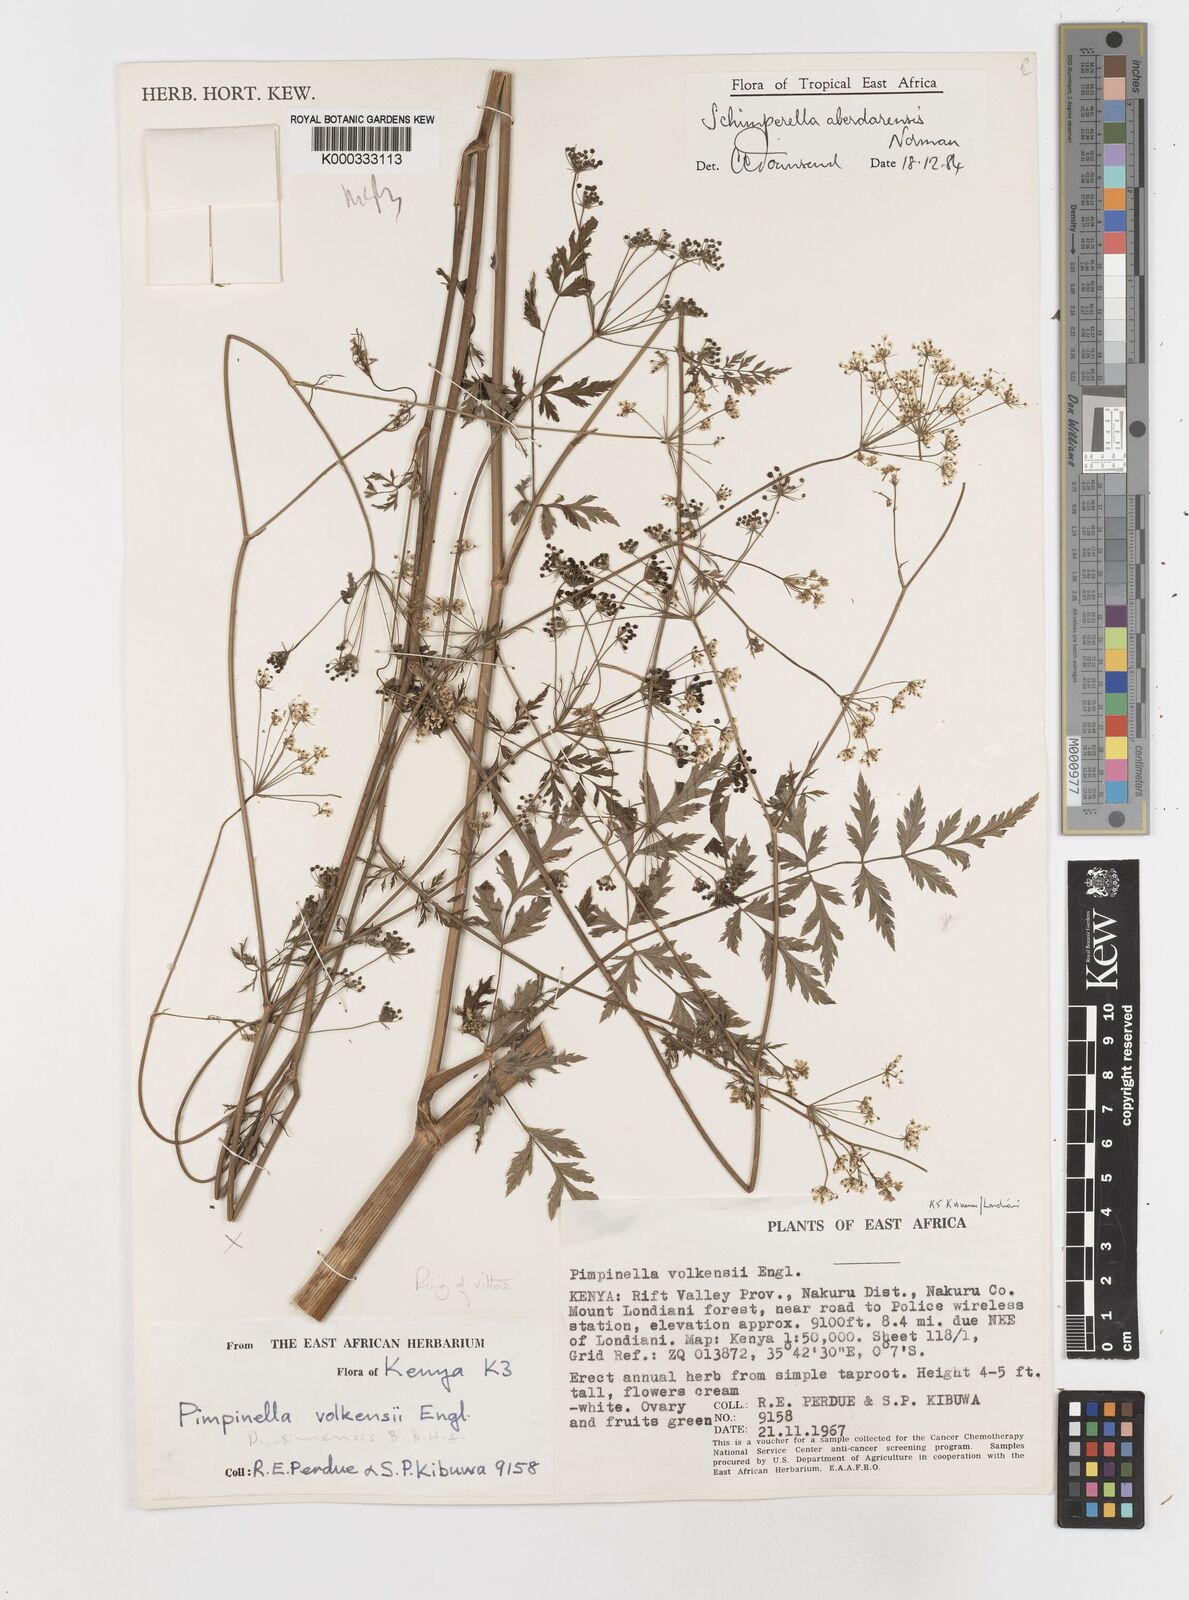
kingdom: Plantae
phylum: Tracheophyta
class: Magnoliopsida
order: Apiales
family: Apiaceae
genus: Oreoschimperella
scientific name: Oreoschimperella aberdarensis
